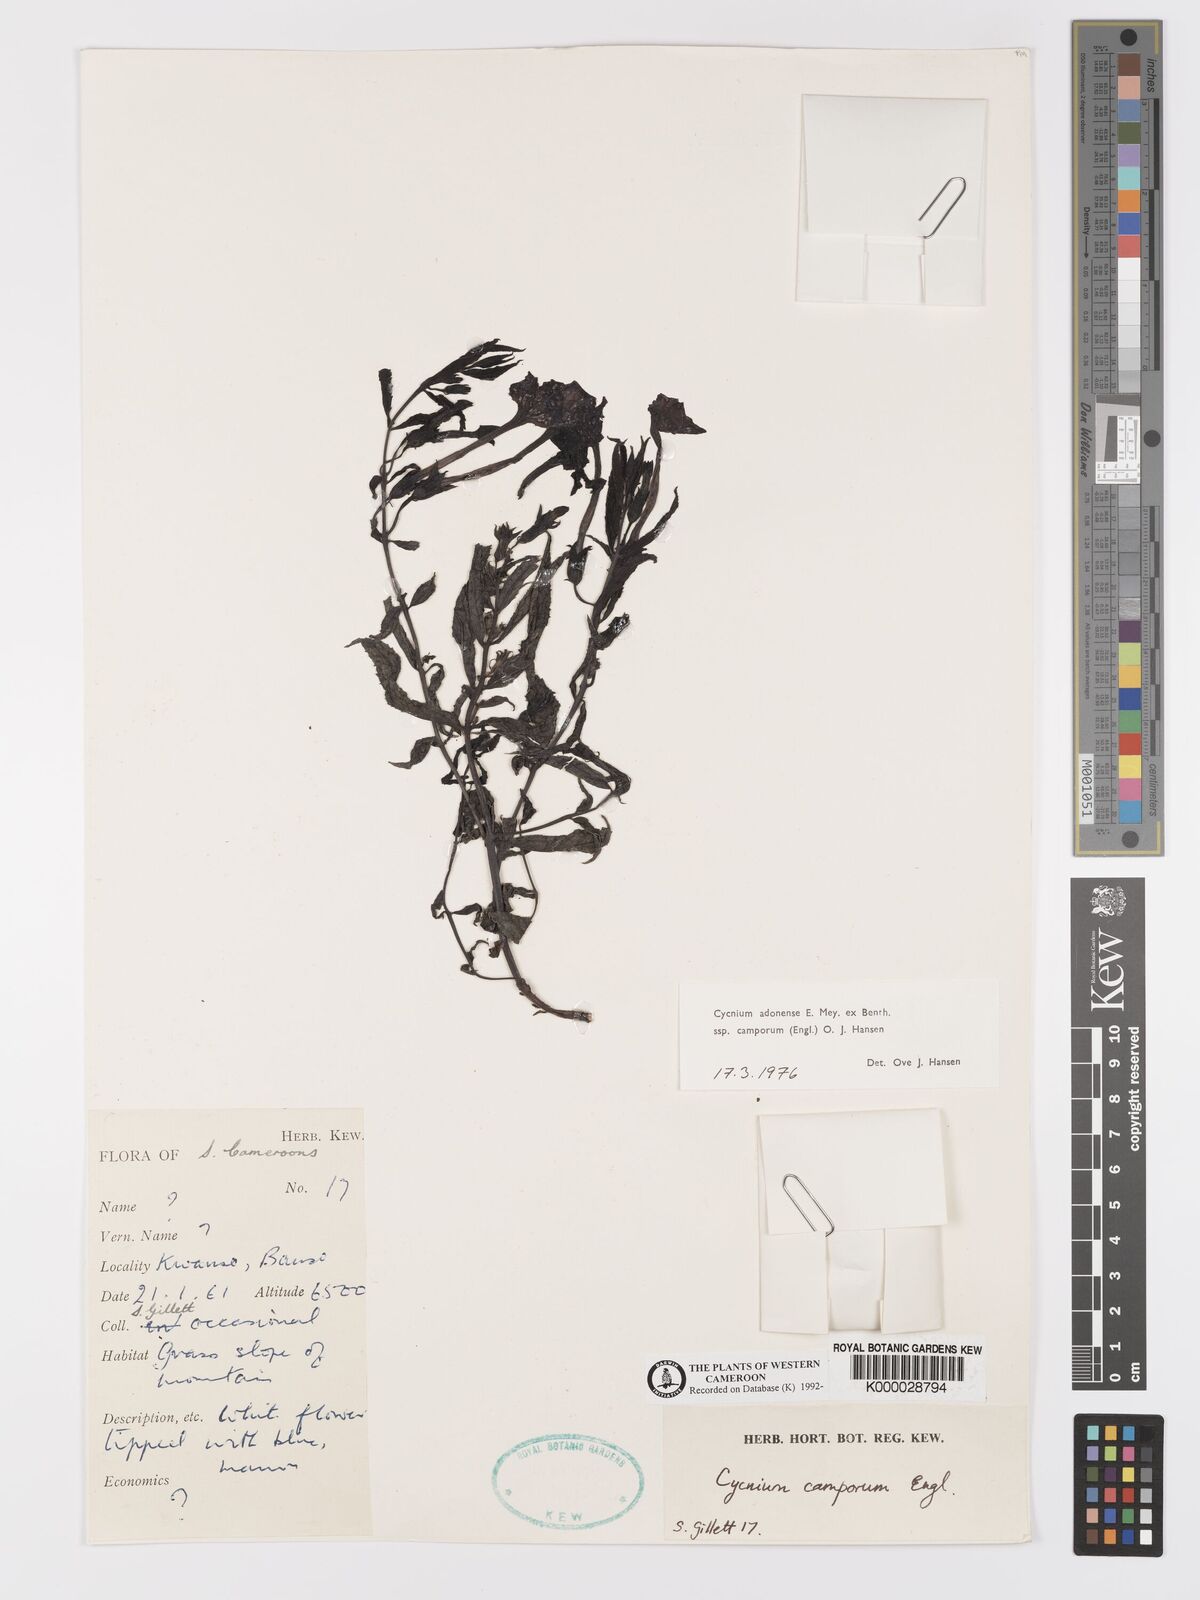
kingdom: Plantae
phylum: Tracheophyta
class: Magnoliopsida
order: Lamiales
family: Orobanchaceae
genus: Cycnium
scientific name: Cycnium adoense
